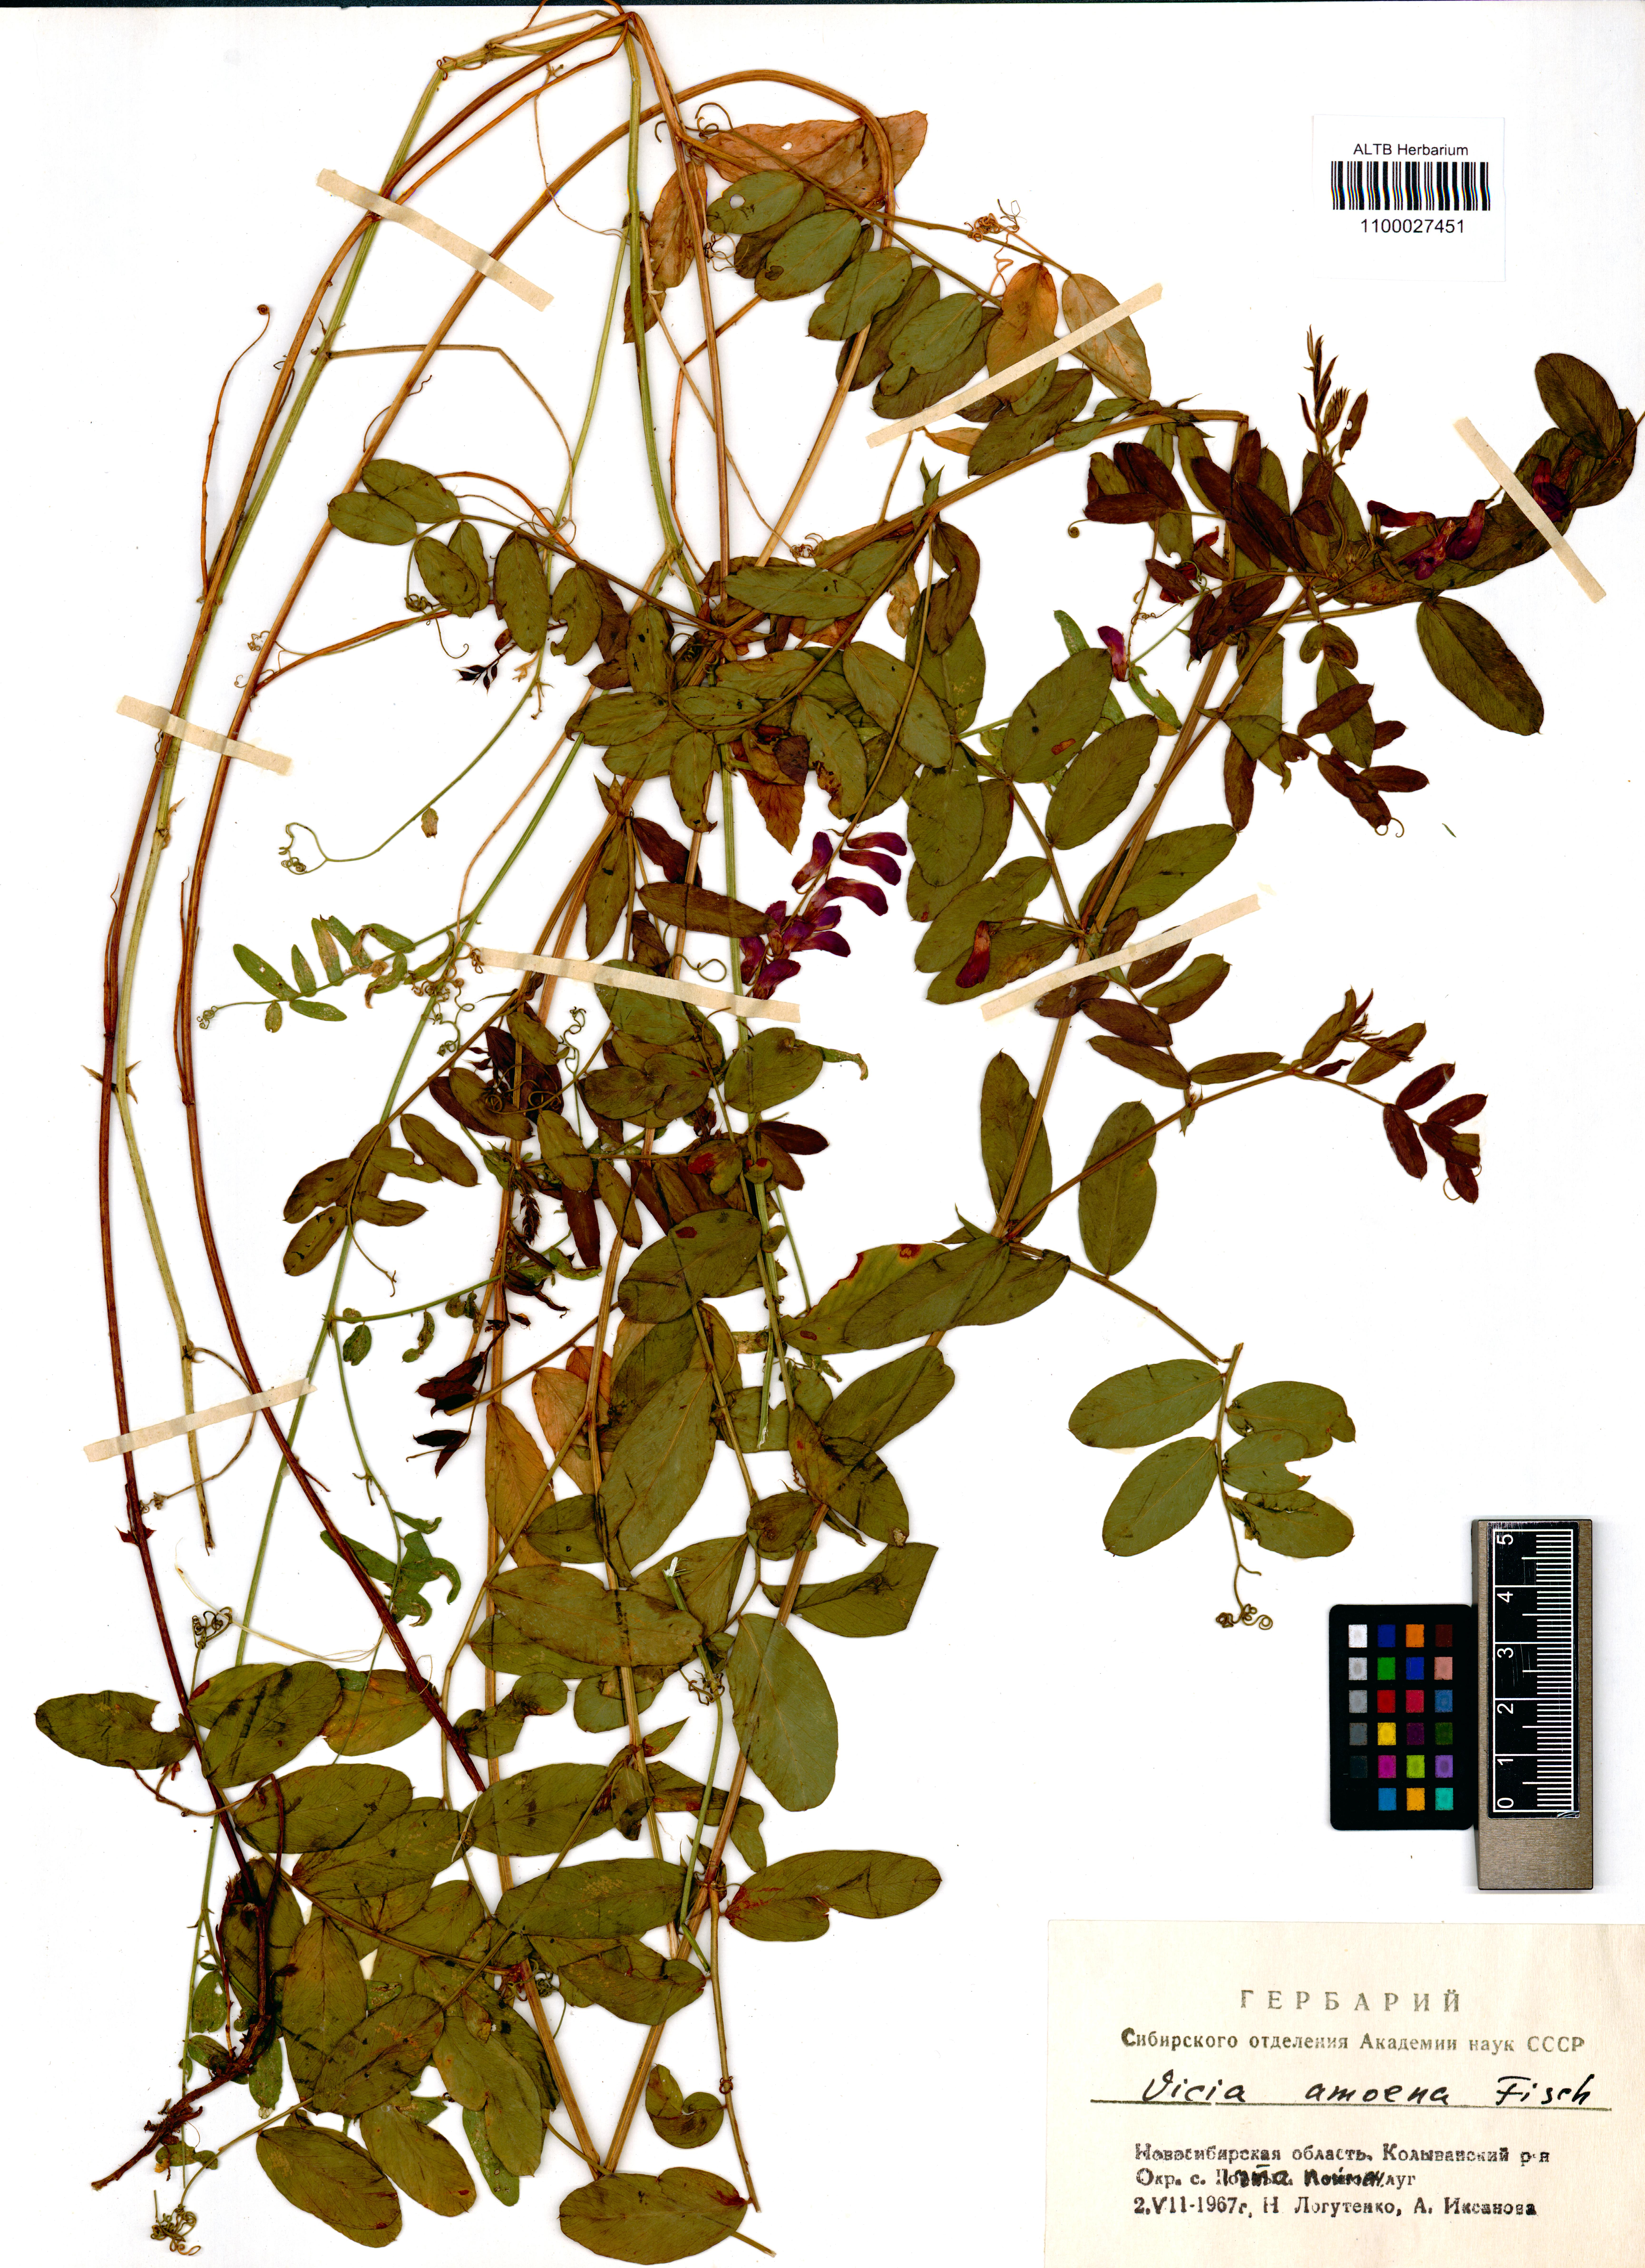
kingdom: Plantae
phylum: Tracheophyta
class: Magnoliopsida
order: Fabales
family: Fabaceae
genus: Vicia
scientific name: Vicia amoena
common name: Cheder ebs
